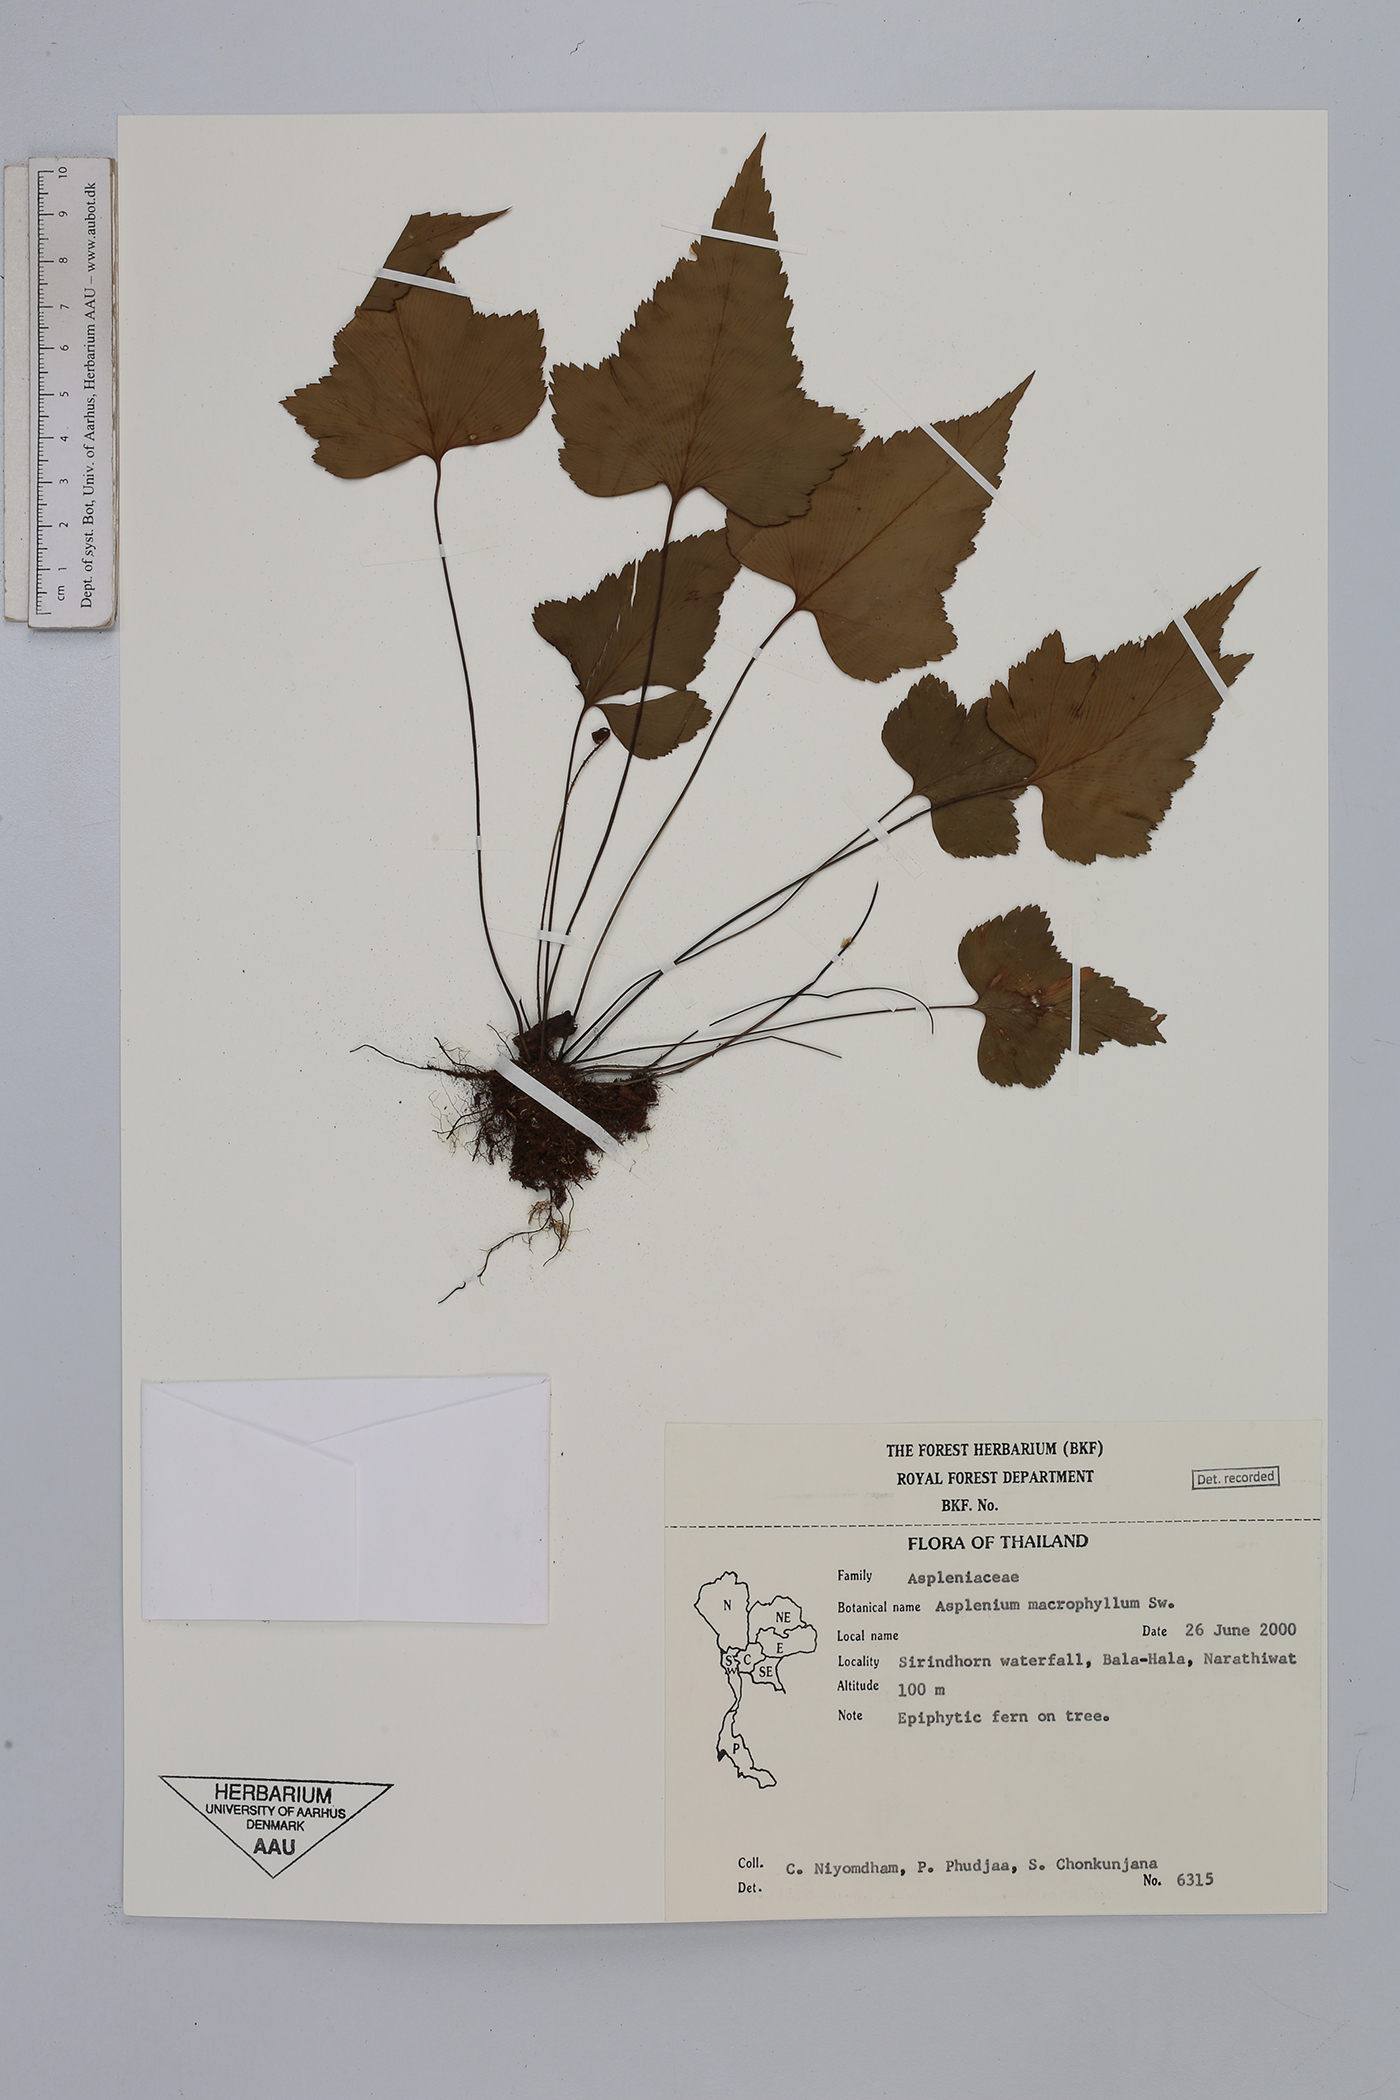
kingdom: Plantae
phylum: Tracheophyta
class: Polypodiopsida
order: Polypodiales
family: Aspleniaceae
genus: Asplenium
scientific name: Asplenium macrophyllum
